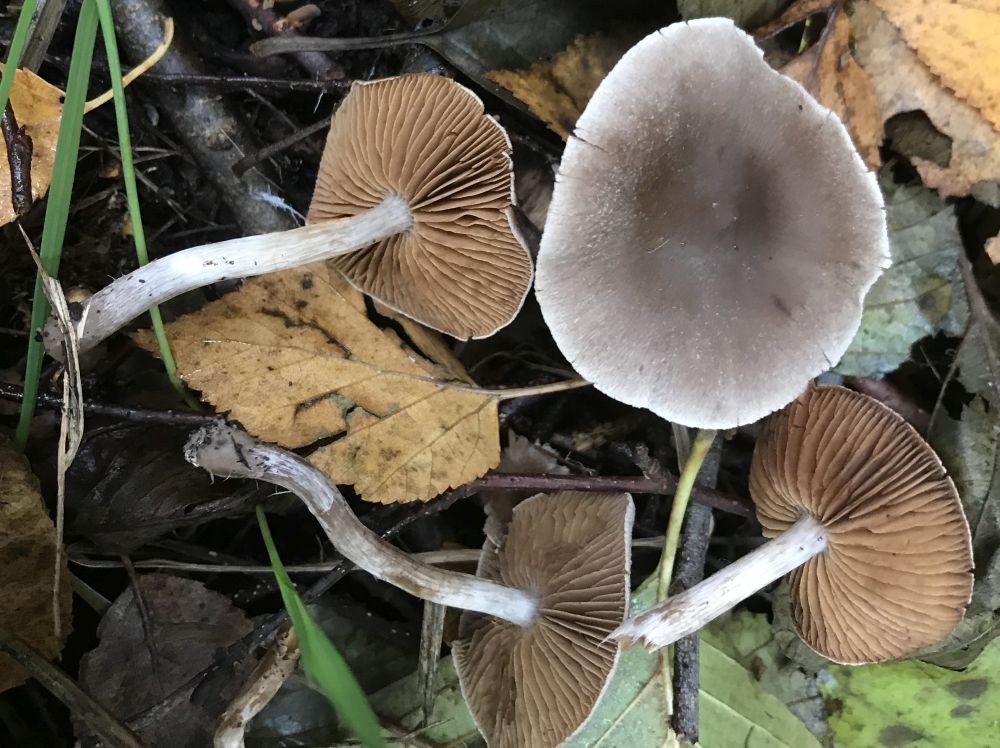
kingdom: Fungi
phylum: Basidiomycota
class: Agaricomycetes
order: Agaricales
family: Cortinariaceae
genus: Cortinarius
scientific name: Cortinarius hemitrichus
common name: hvidfnugget slørhat
